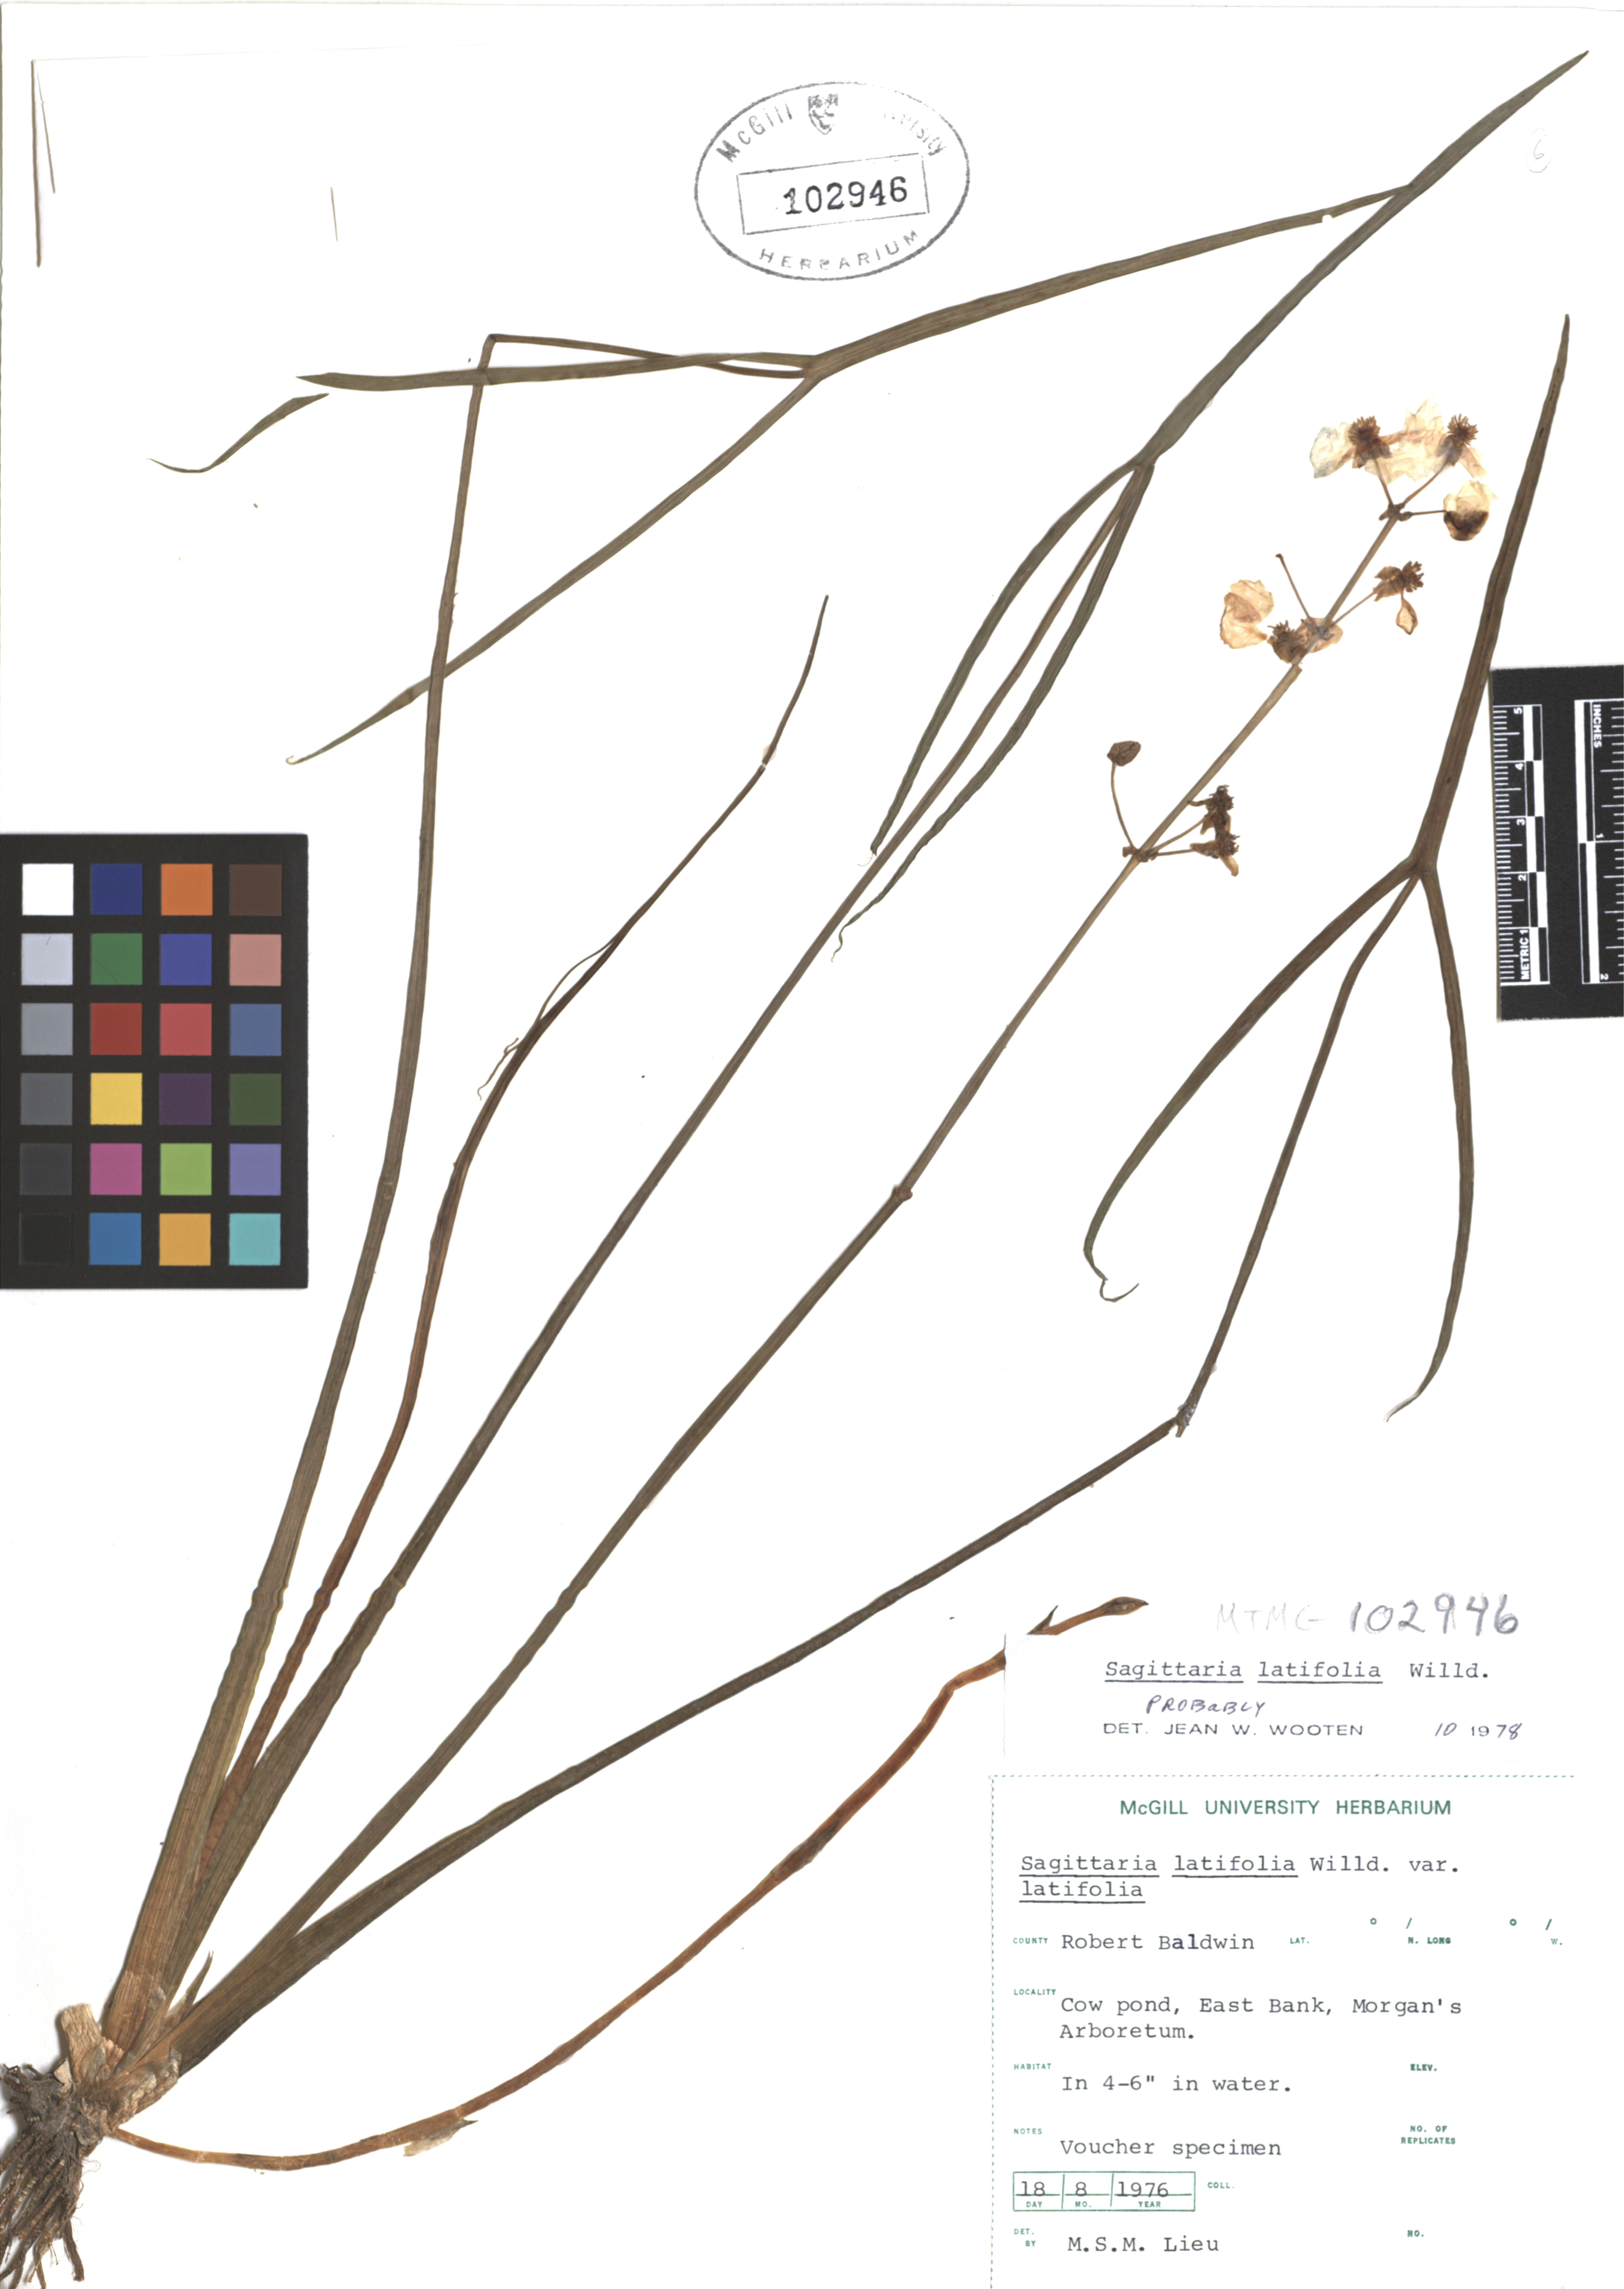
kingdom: Plantae
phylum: Tracheophyta
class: Liliopsida
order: Alismatales
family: Alismataceae
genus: Sagittaria
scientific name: Sagittaria latifolia
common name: Duck-potato
